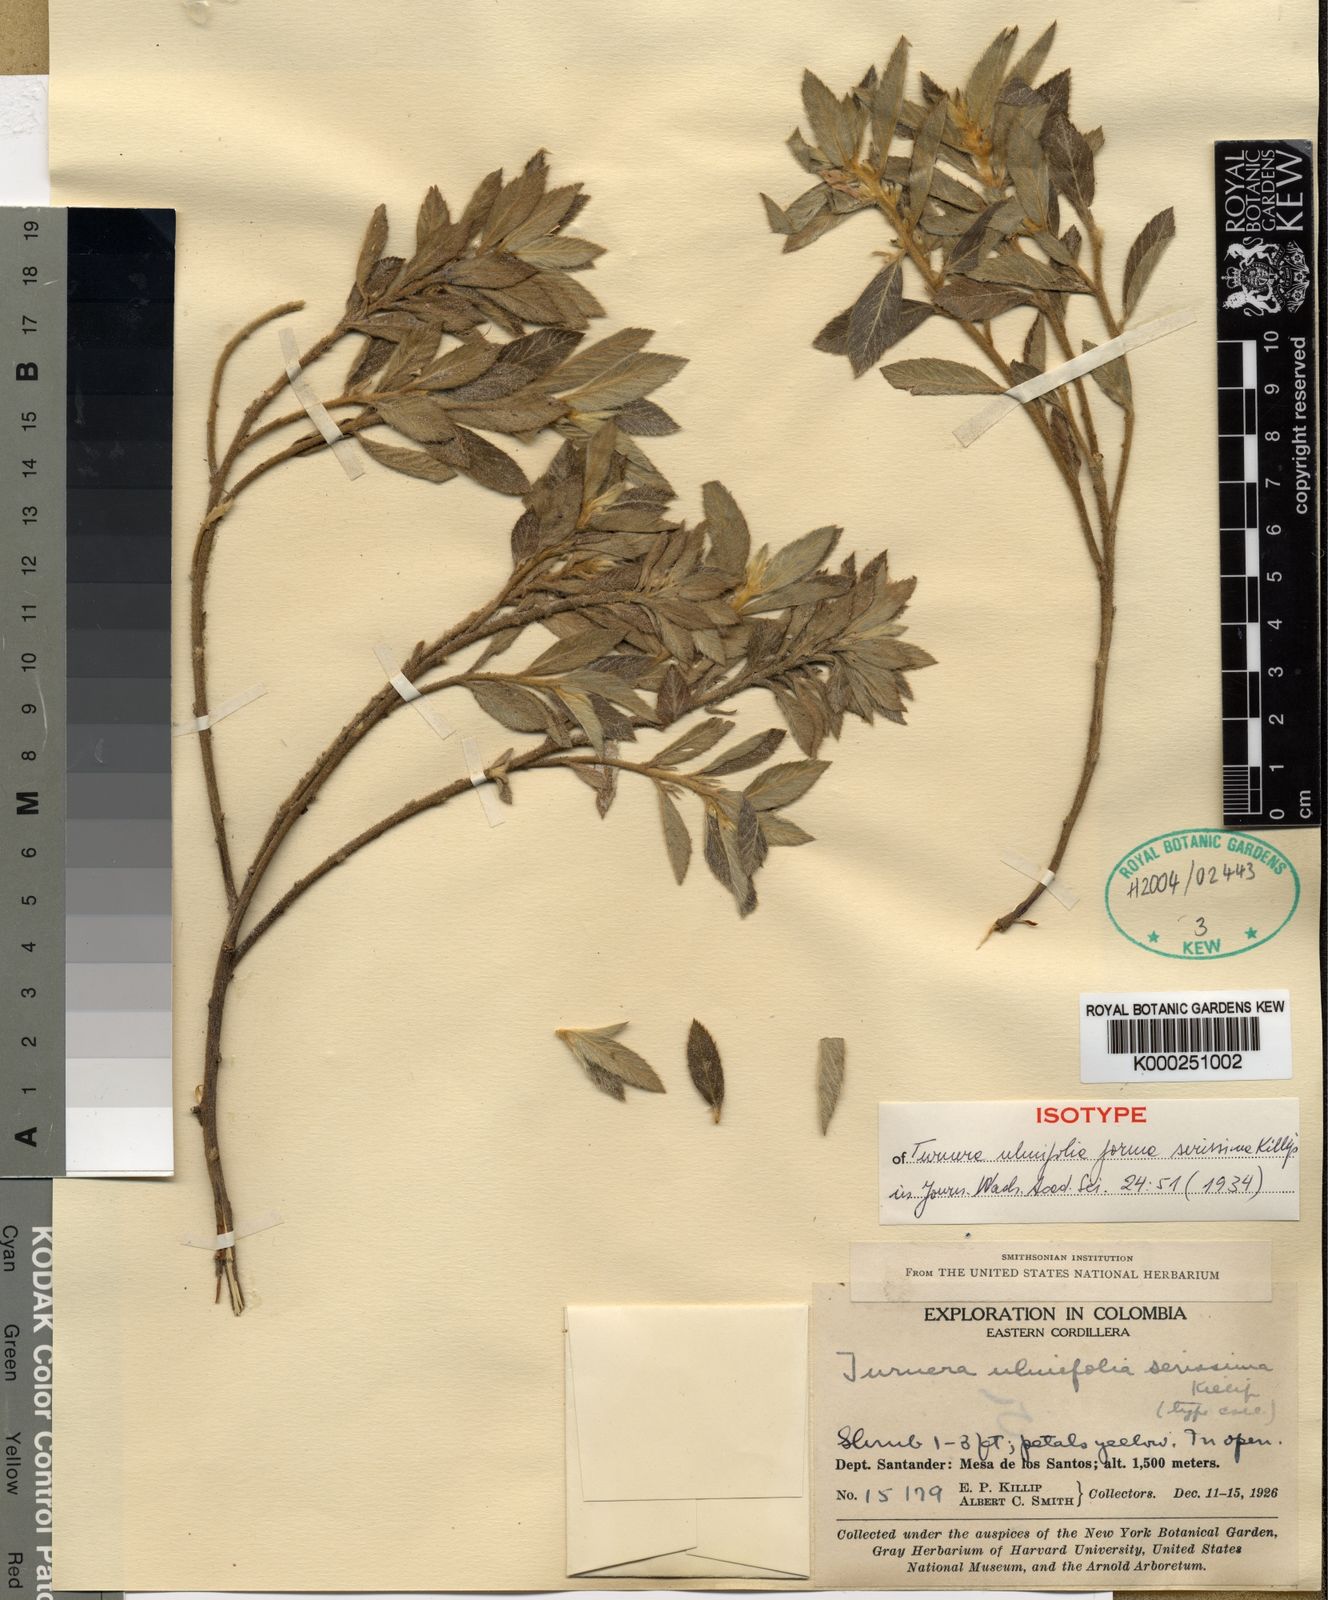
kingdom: Plantae
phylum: Tracheophyta
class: Magnoliopsida
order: Malpighiales
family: Turneraceae
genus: Turnera
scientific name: Turnera
